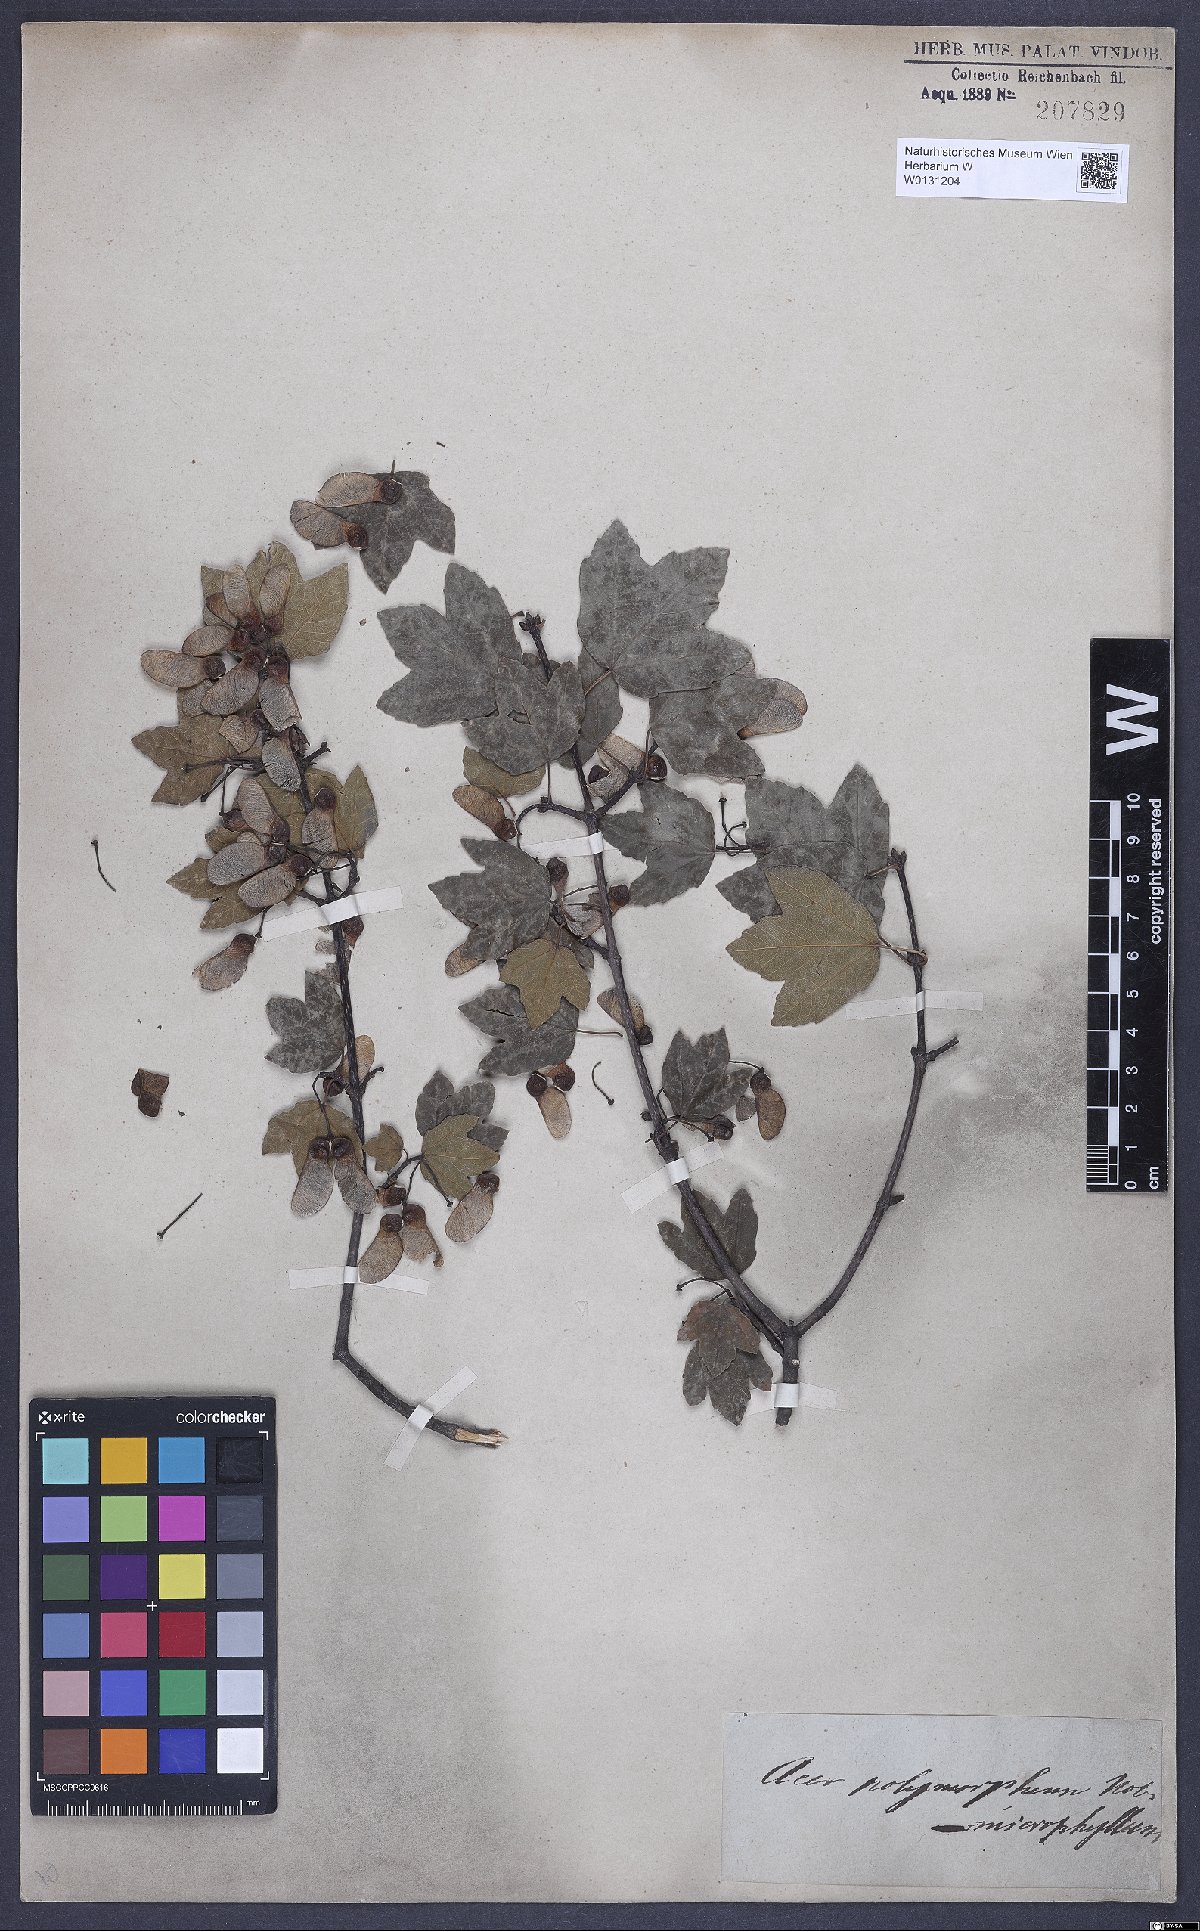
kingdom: Plantae
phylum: Tracheophyta
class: Magnoliopsida
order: Sapindales
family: Aceraceae
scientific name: Aceraceae
